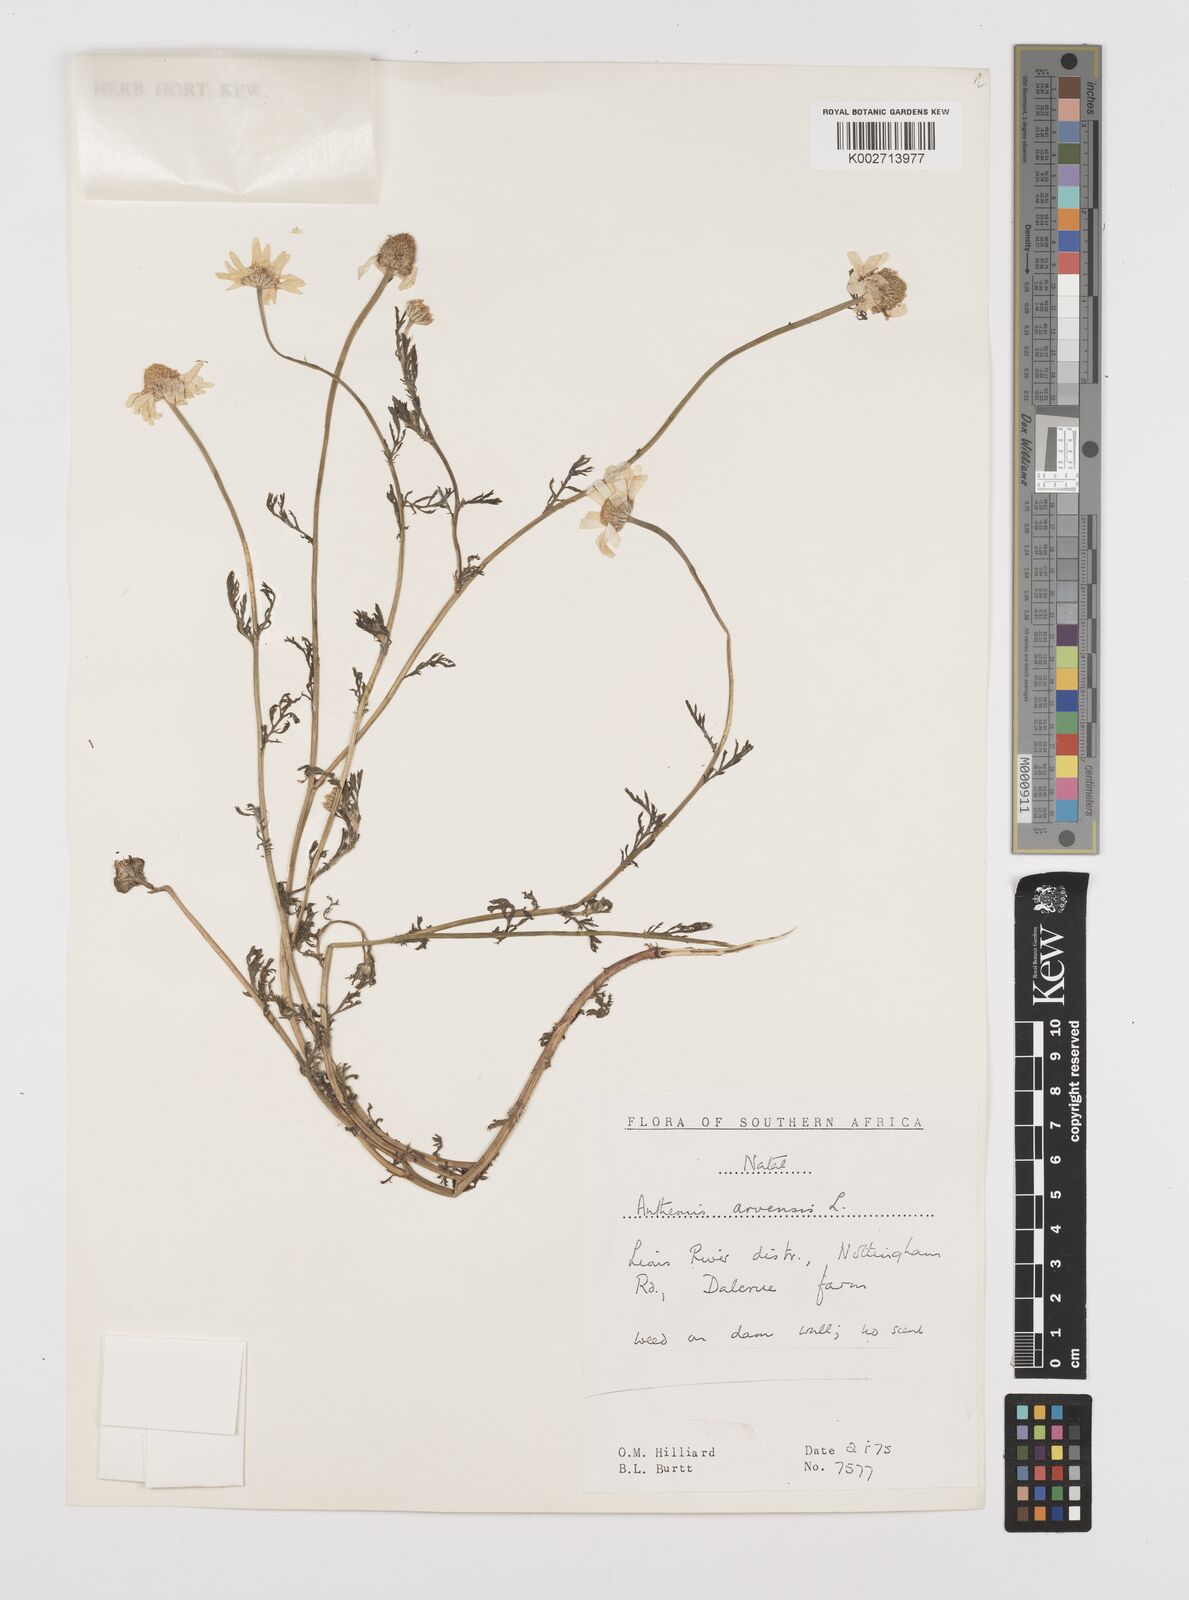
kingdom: Plantae
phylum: Tracheophyta
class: Magnoliopsida
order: Asterales
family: Asteraceae
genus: Anthemis
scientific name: Anthemis arvensis
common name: Corn chamomile
